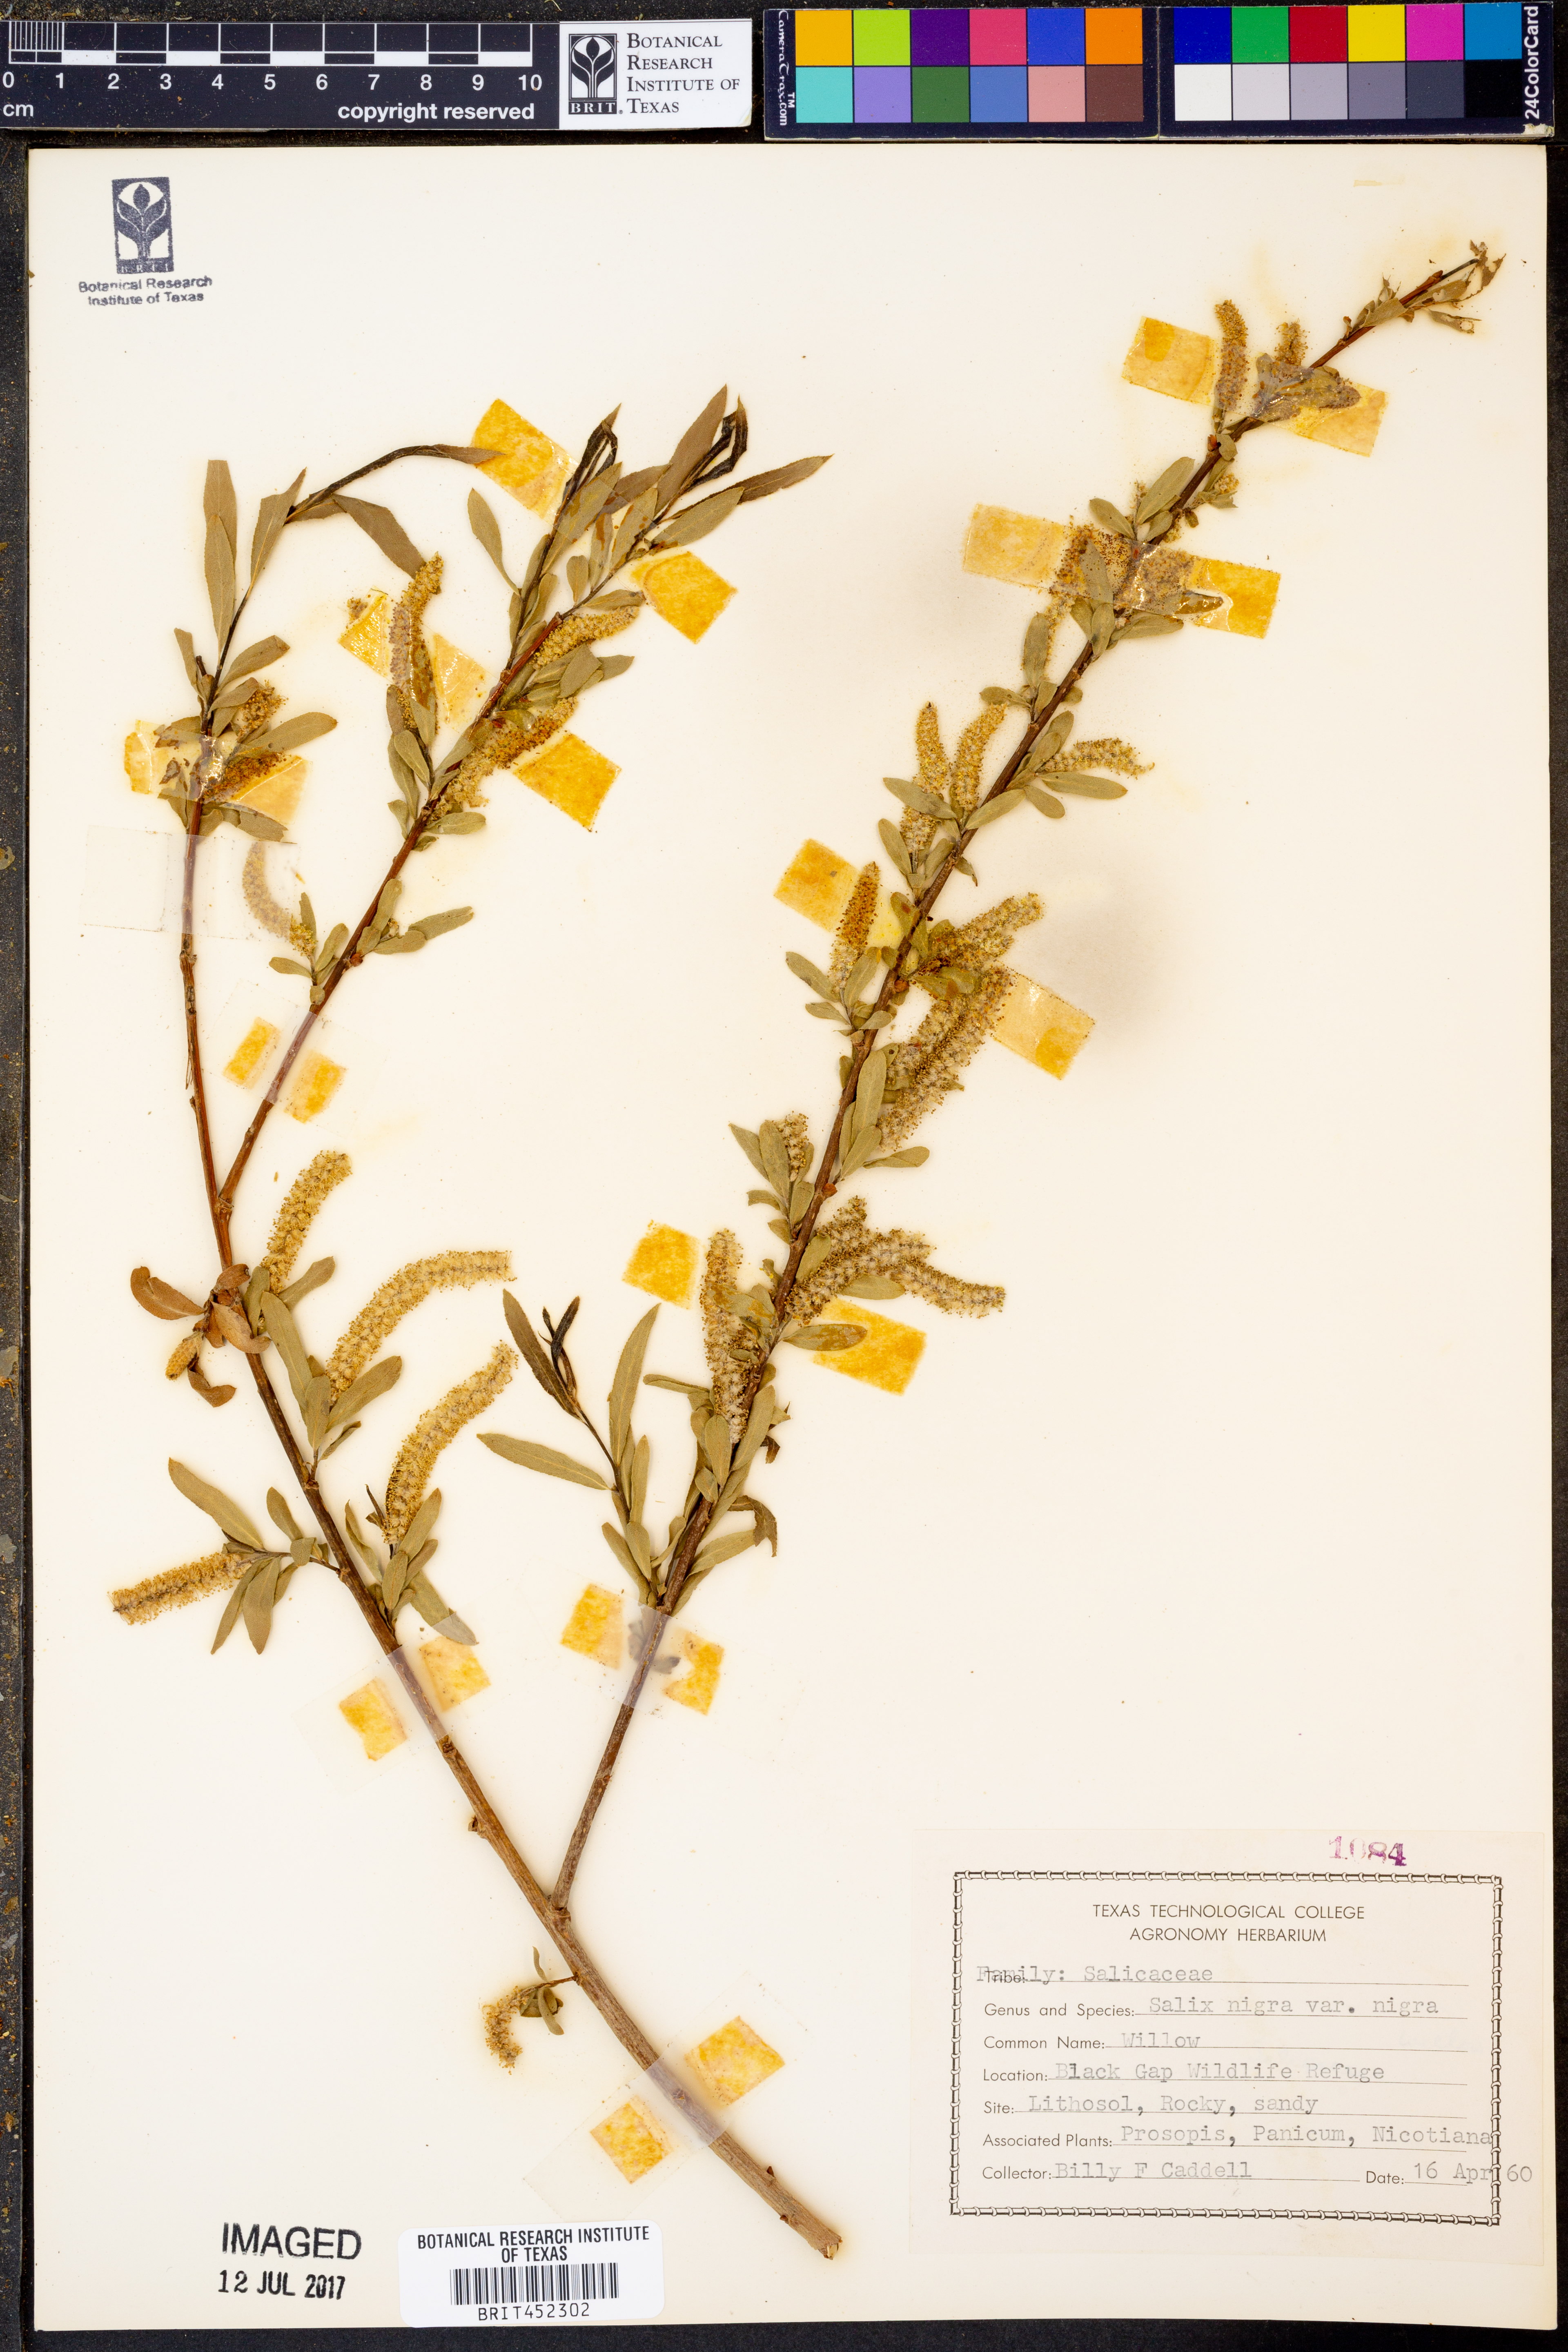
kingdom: Plantae
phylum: Tracheophyta
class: Magnoliopsida
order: Malpighiales
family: Salicaceae
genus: Salix
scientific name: Salix nigra
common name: Black willow
